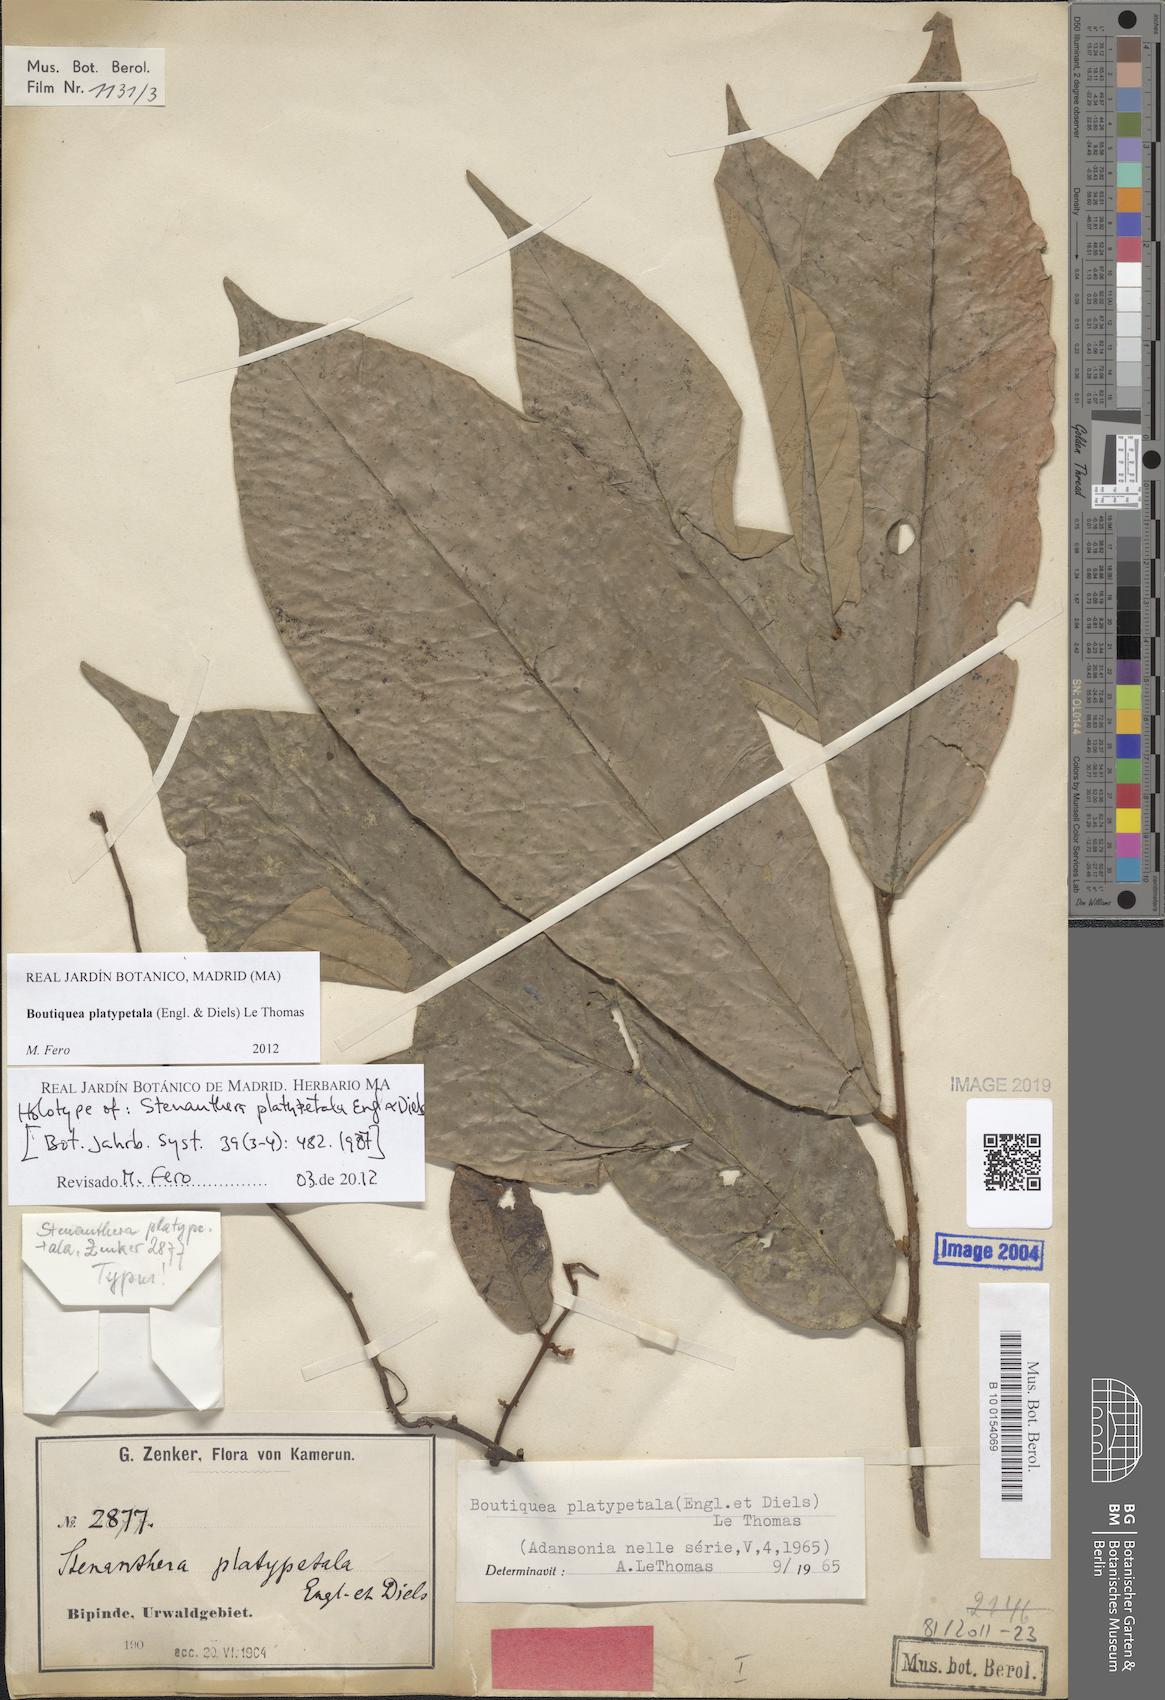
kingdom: Plantae
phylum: Tracheophyta
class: Magnoliopsida
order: Magnoliales
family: Annonaceae
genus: Boutiquea
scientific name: Boutiquea platypetala
